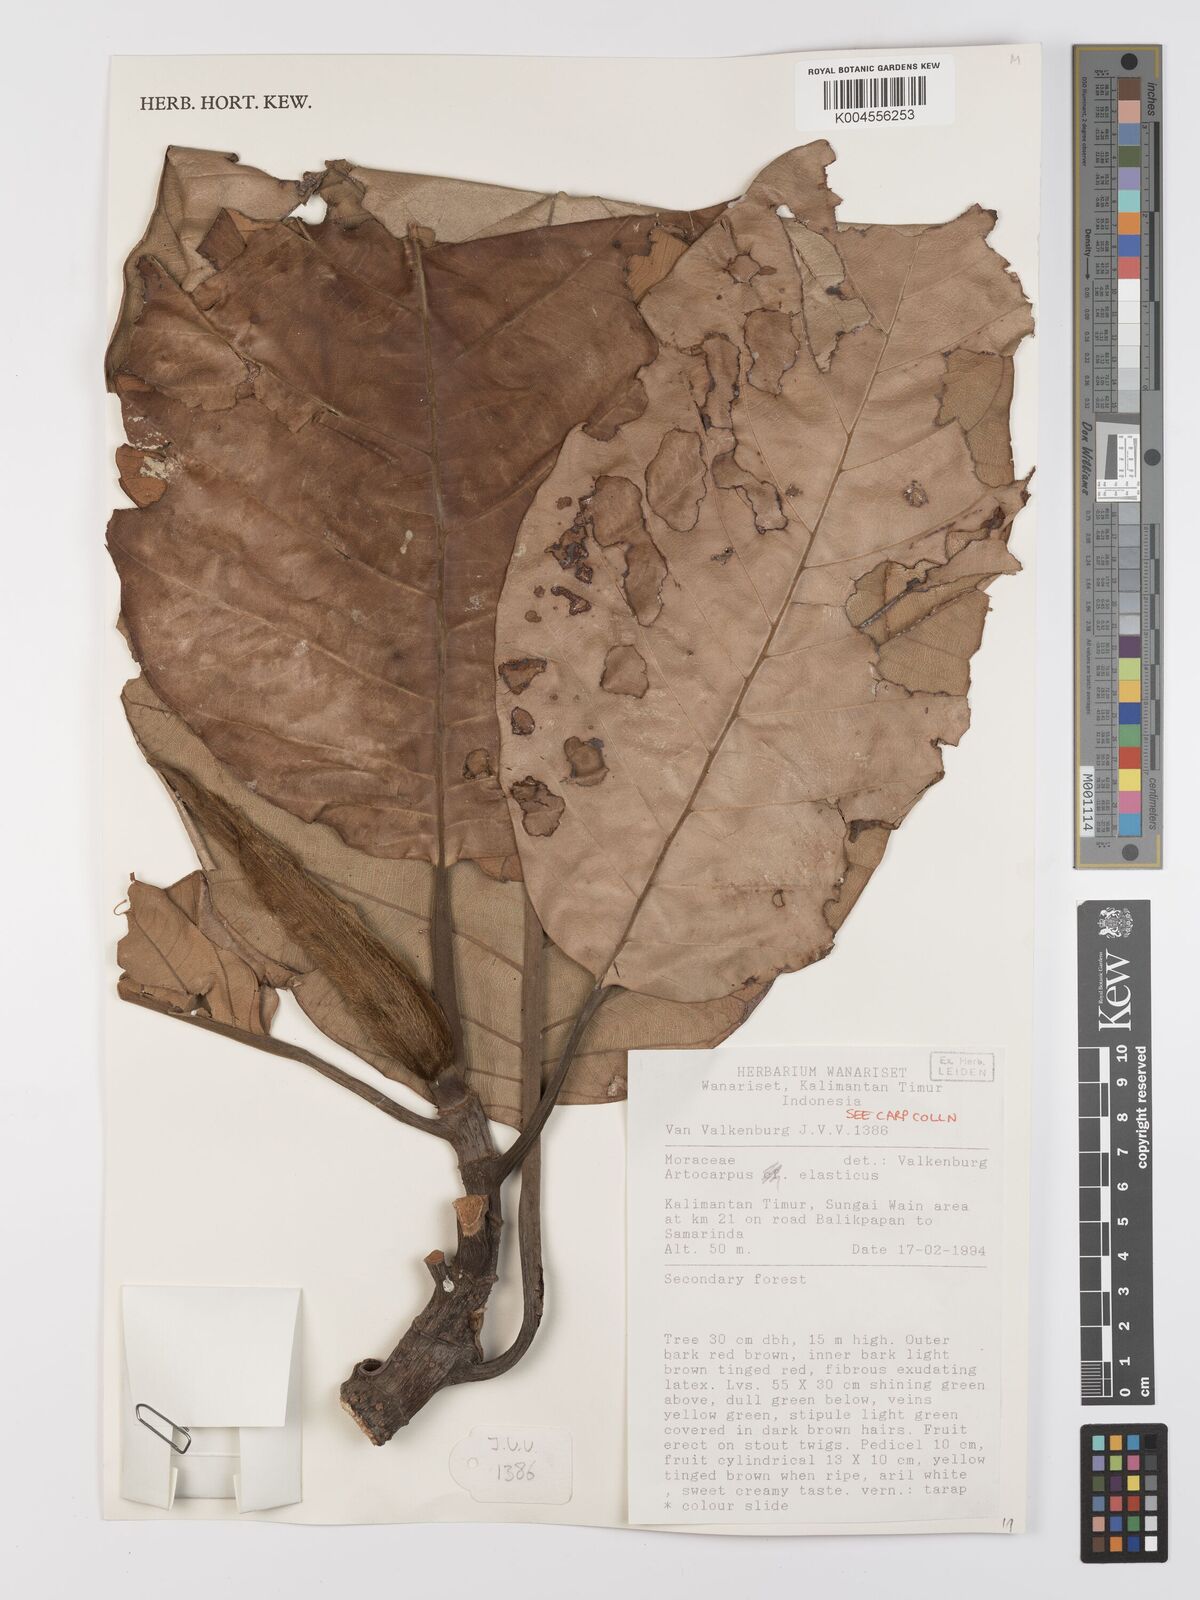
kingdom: Plantae
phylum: Tracheophyta
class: Magnoliopsida
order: Rosales
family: Moraceae
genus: Artocarpus
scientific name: Artocarpus elasticus
